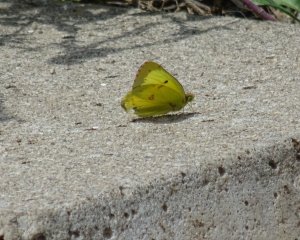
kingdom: Animalia
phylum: Arthropoda
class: Insecta
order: Lepidoptera
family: Pieridae
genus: Colias
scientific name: Colias philodice
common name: Clouded Sulphur
